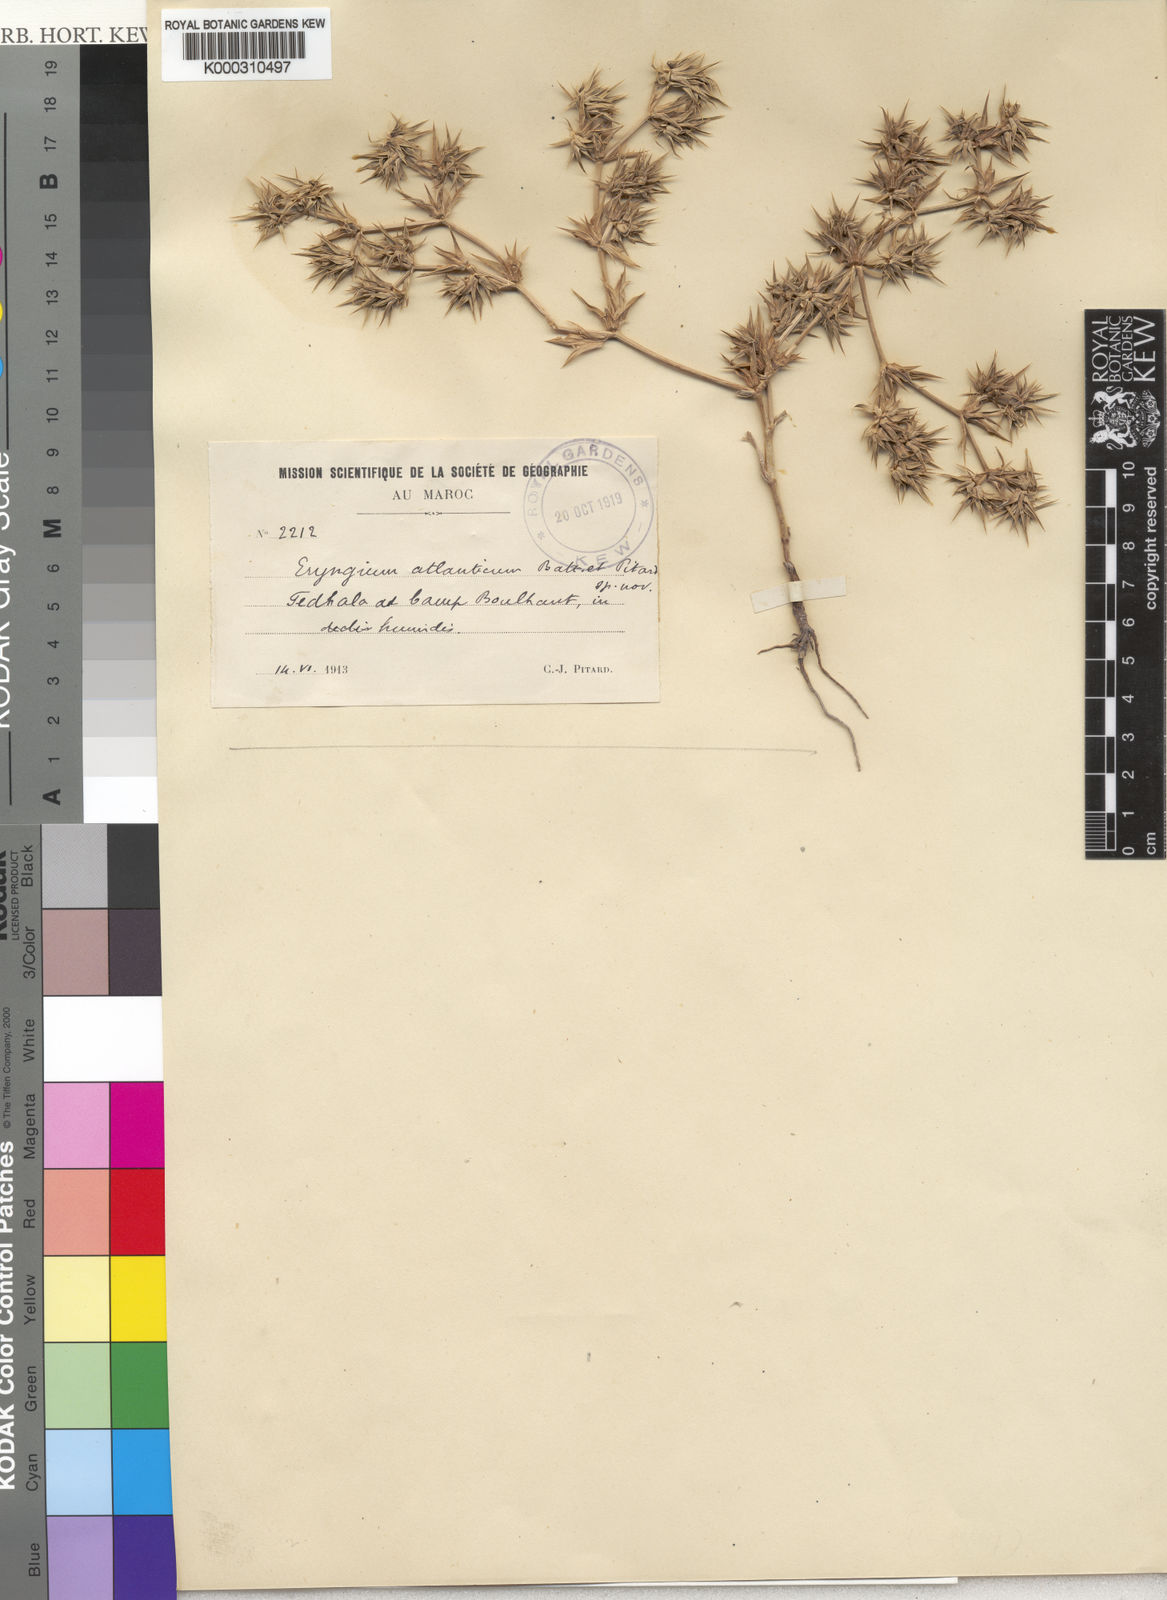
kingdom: Plantae
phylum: Tracheophyta
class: Magnoliopsida
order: Apiales
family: Apiaceae
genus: Eryngium
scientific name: Eryngium atlanticum
